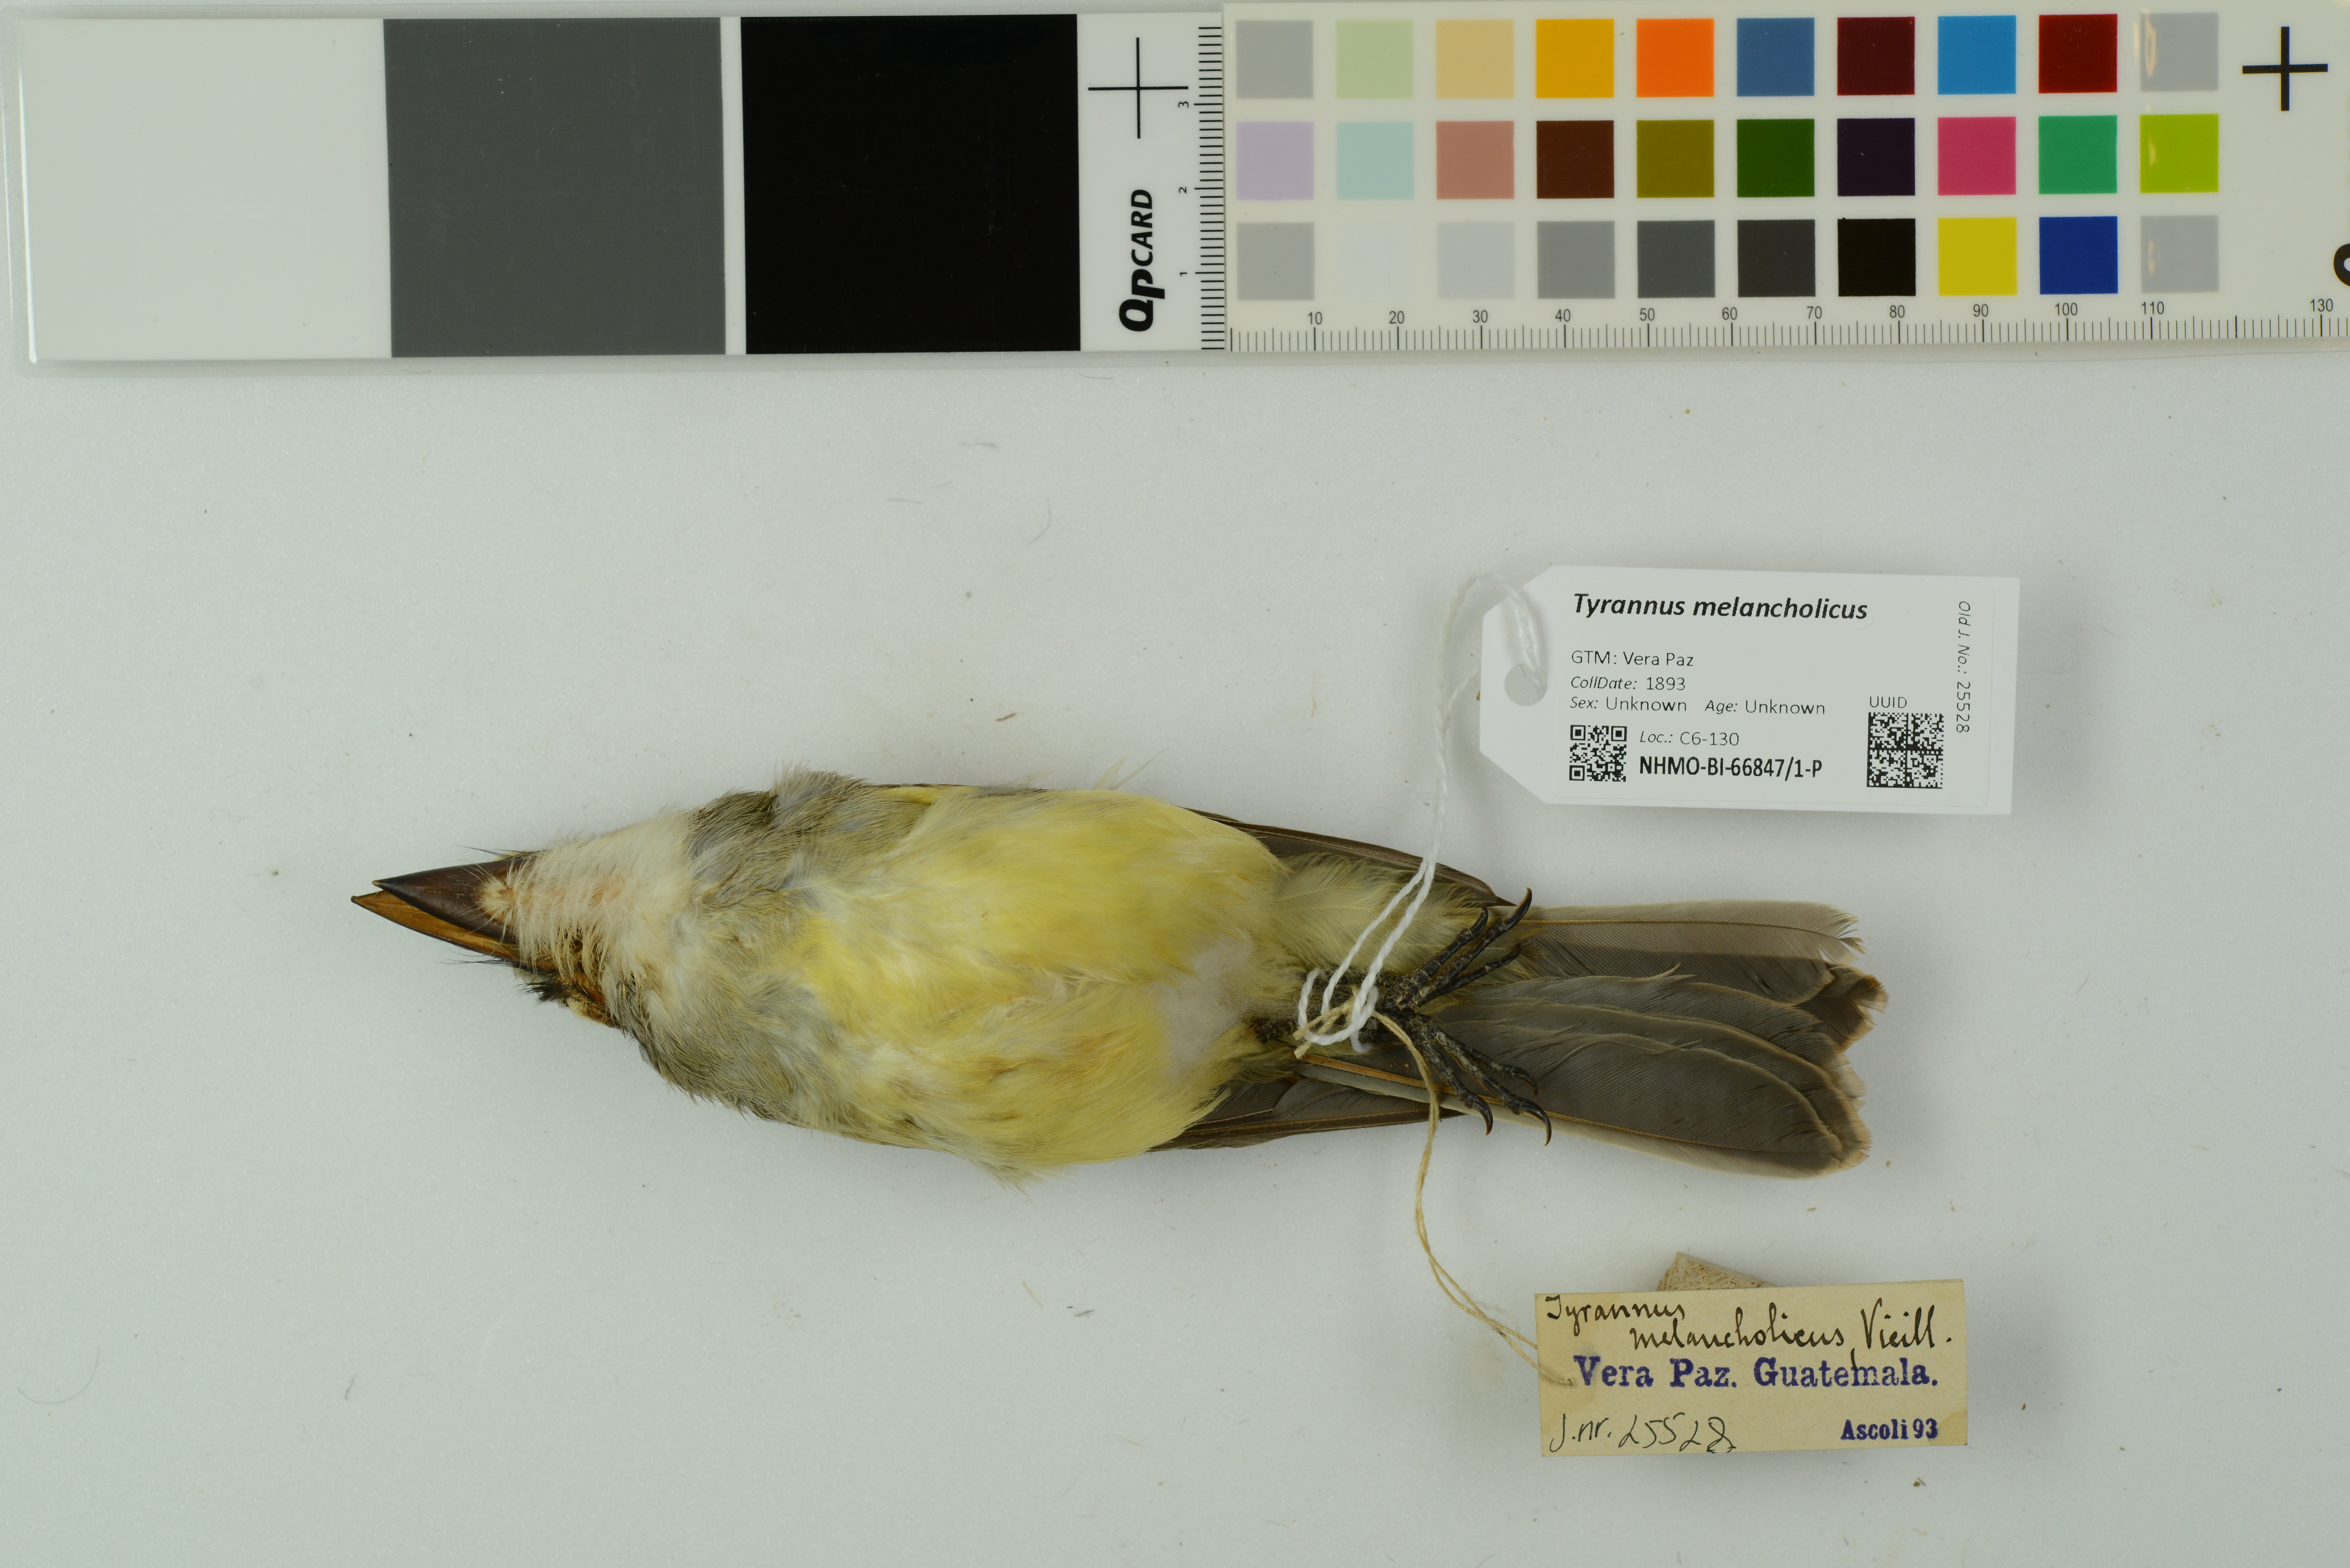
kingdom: Animalia
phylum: Chordata
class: Aves
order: Passeriformes
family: Tyrannidae
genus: Tyrannus
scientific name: Tyrannus melancholicus
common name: Tropical kingbird
